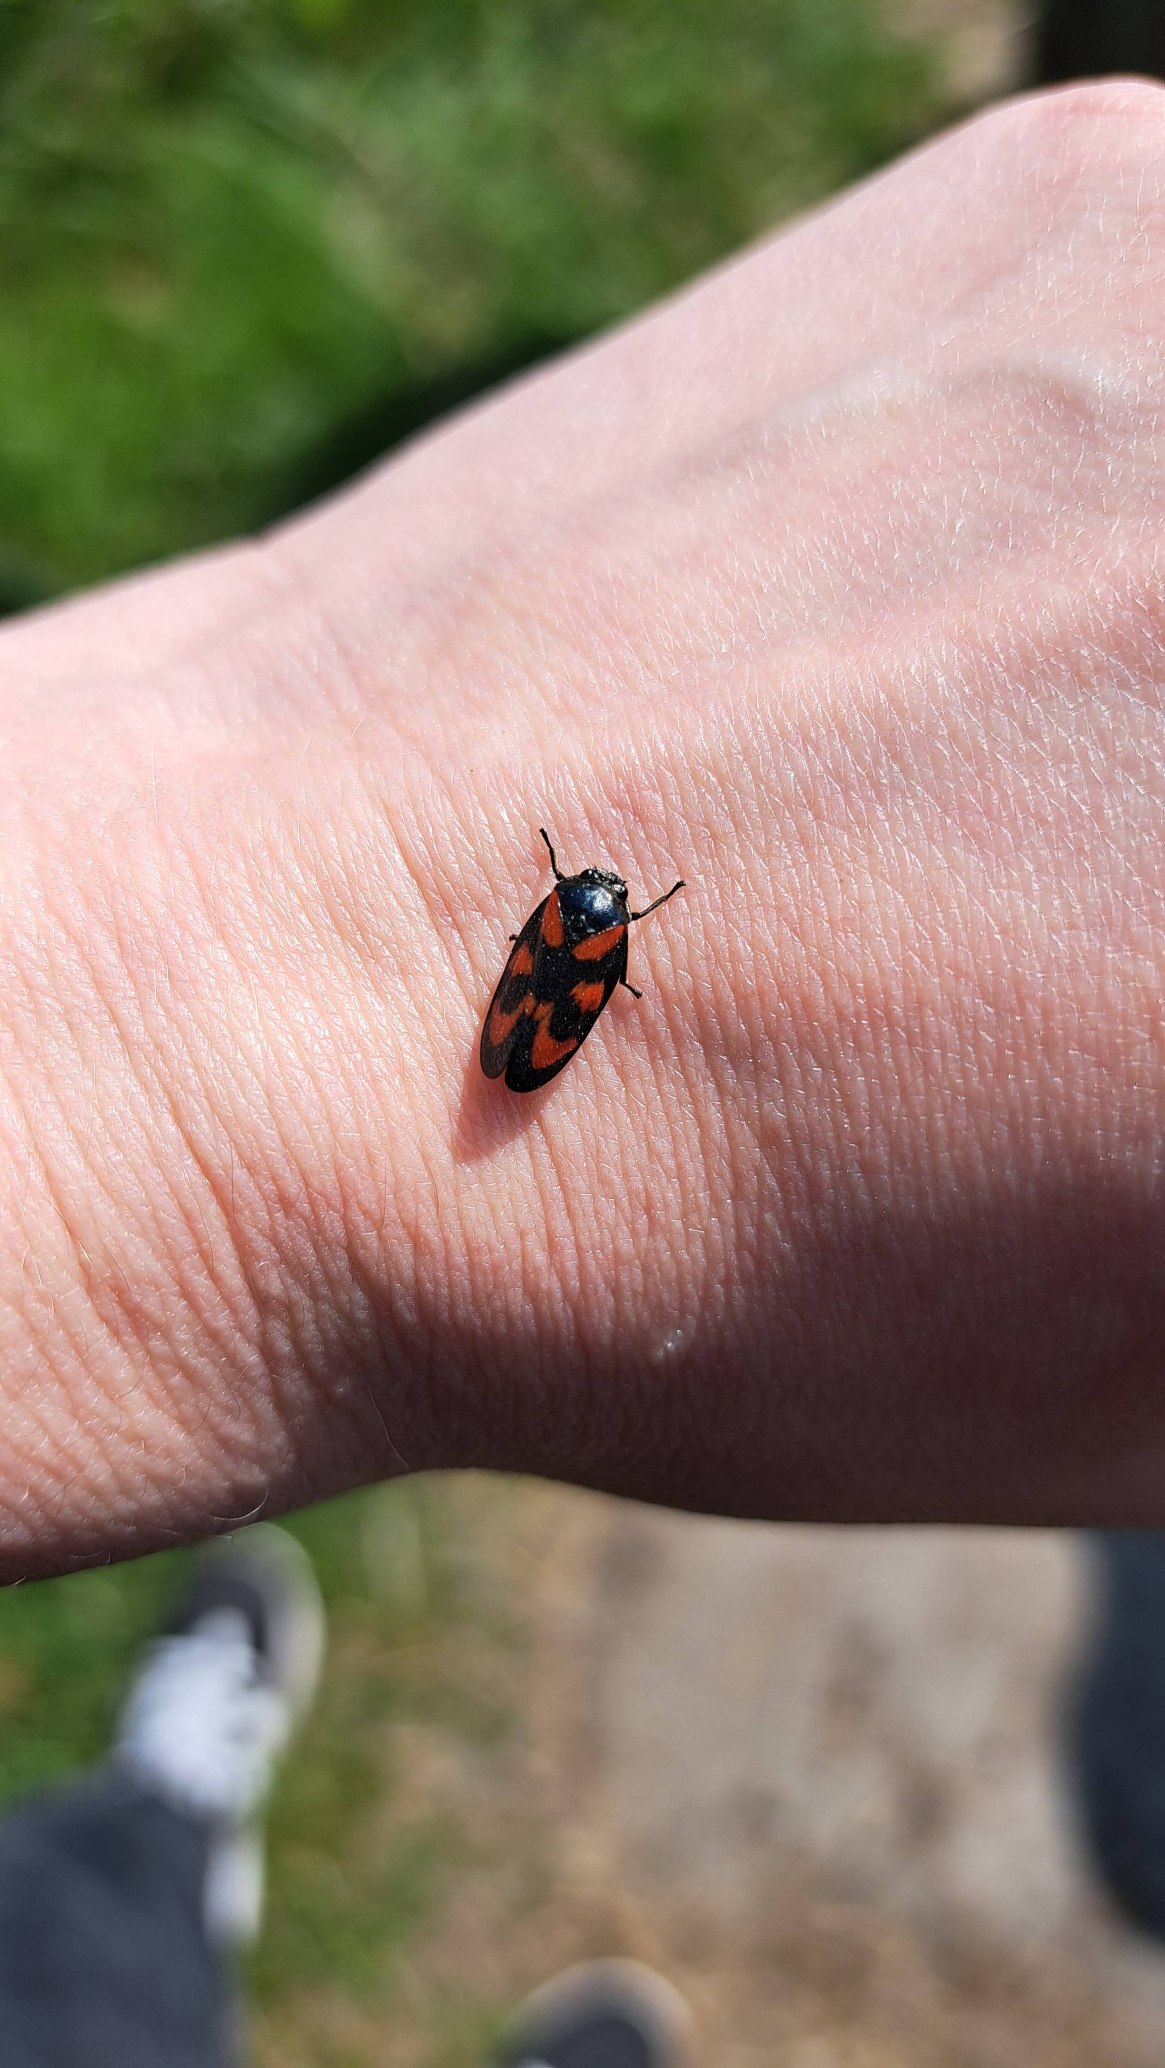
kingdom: Animalia
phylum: Arthropoda
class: Insecta
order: Hemiptera
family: Cercopidae
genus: Cercopis
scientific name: Cercopis vulnerata
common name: Blodcikade
